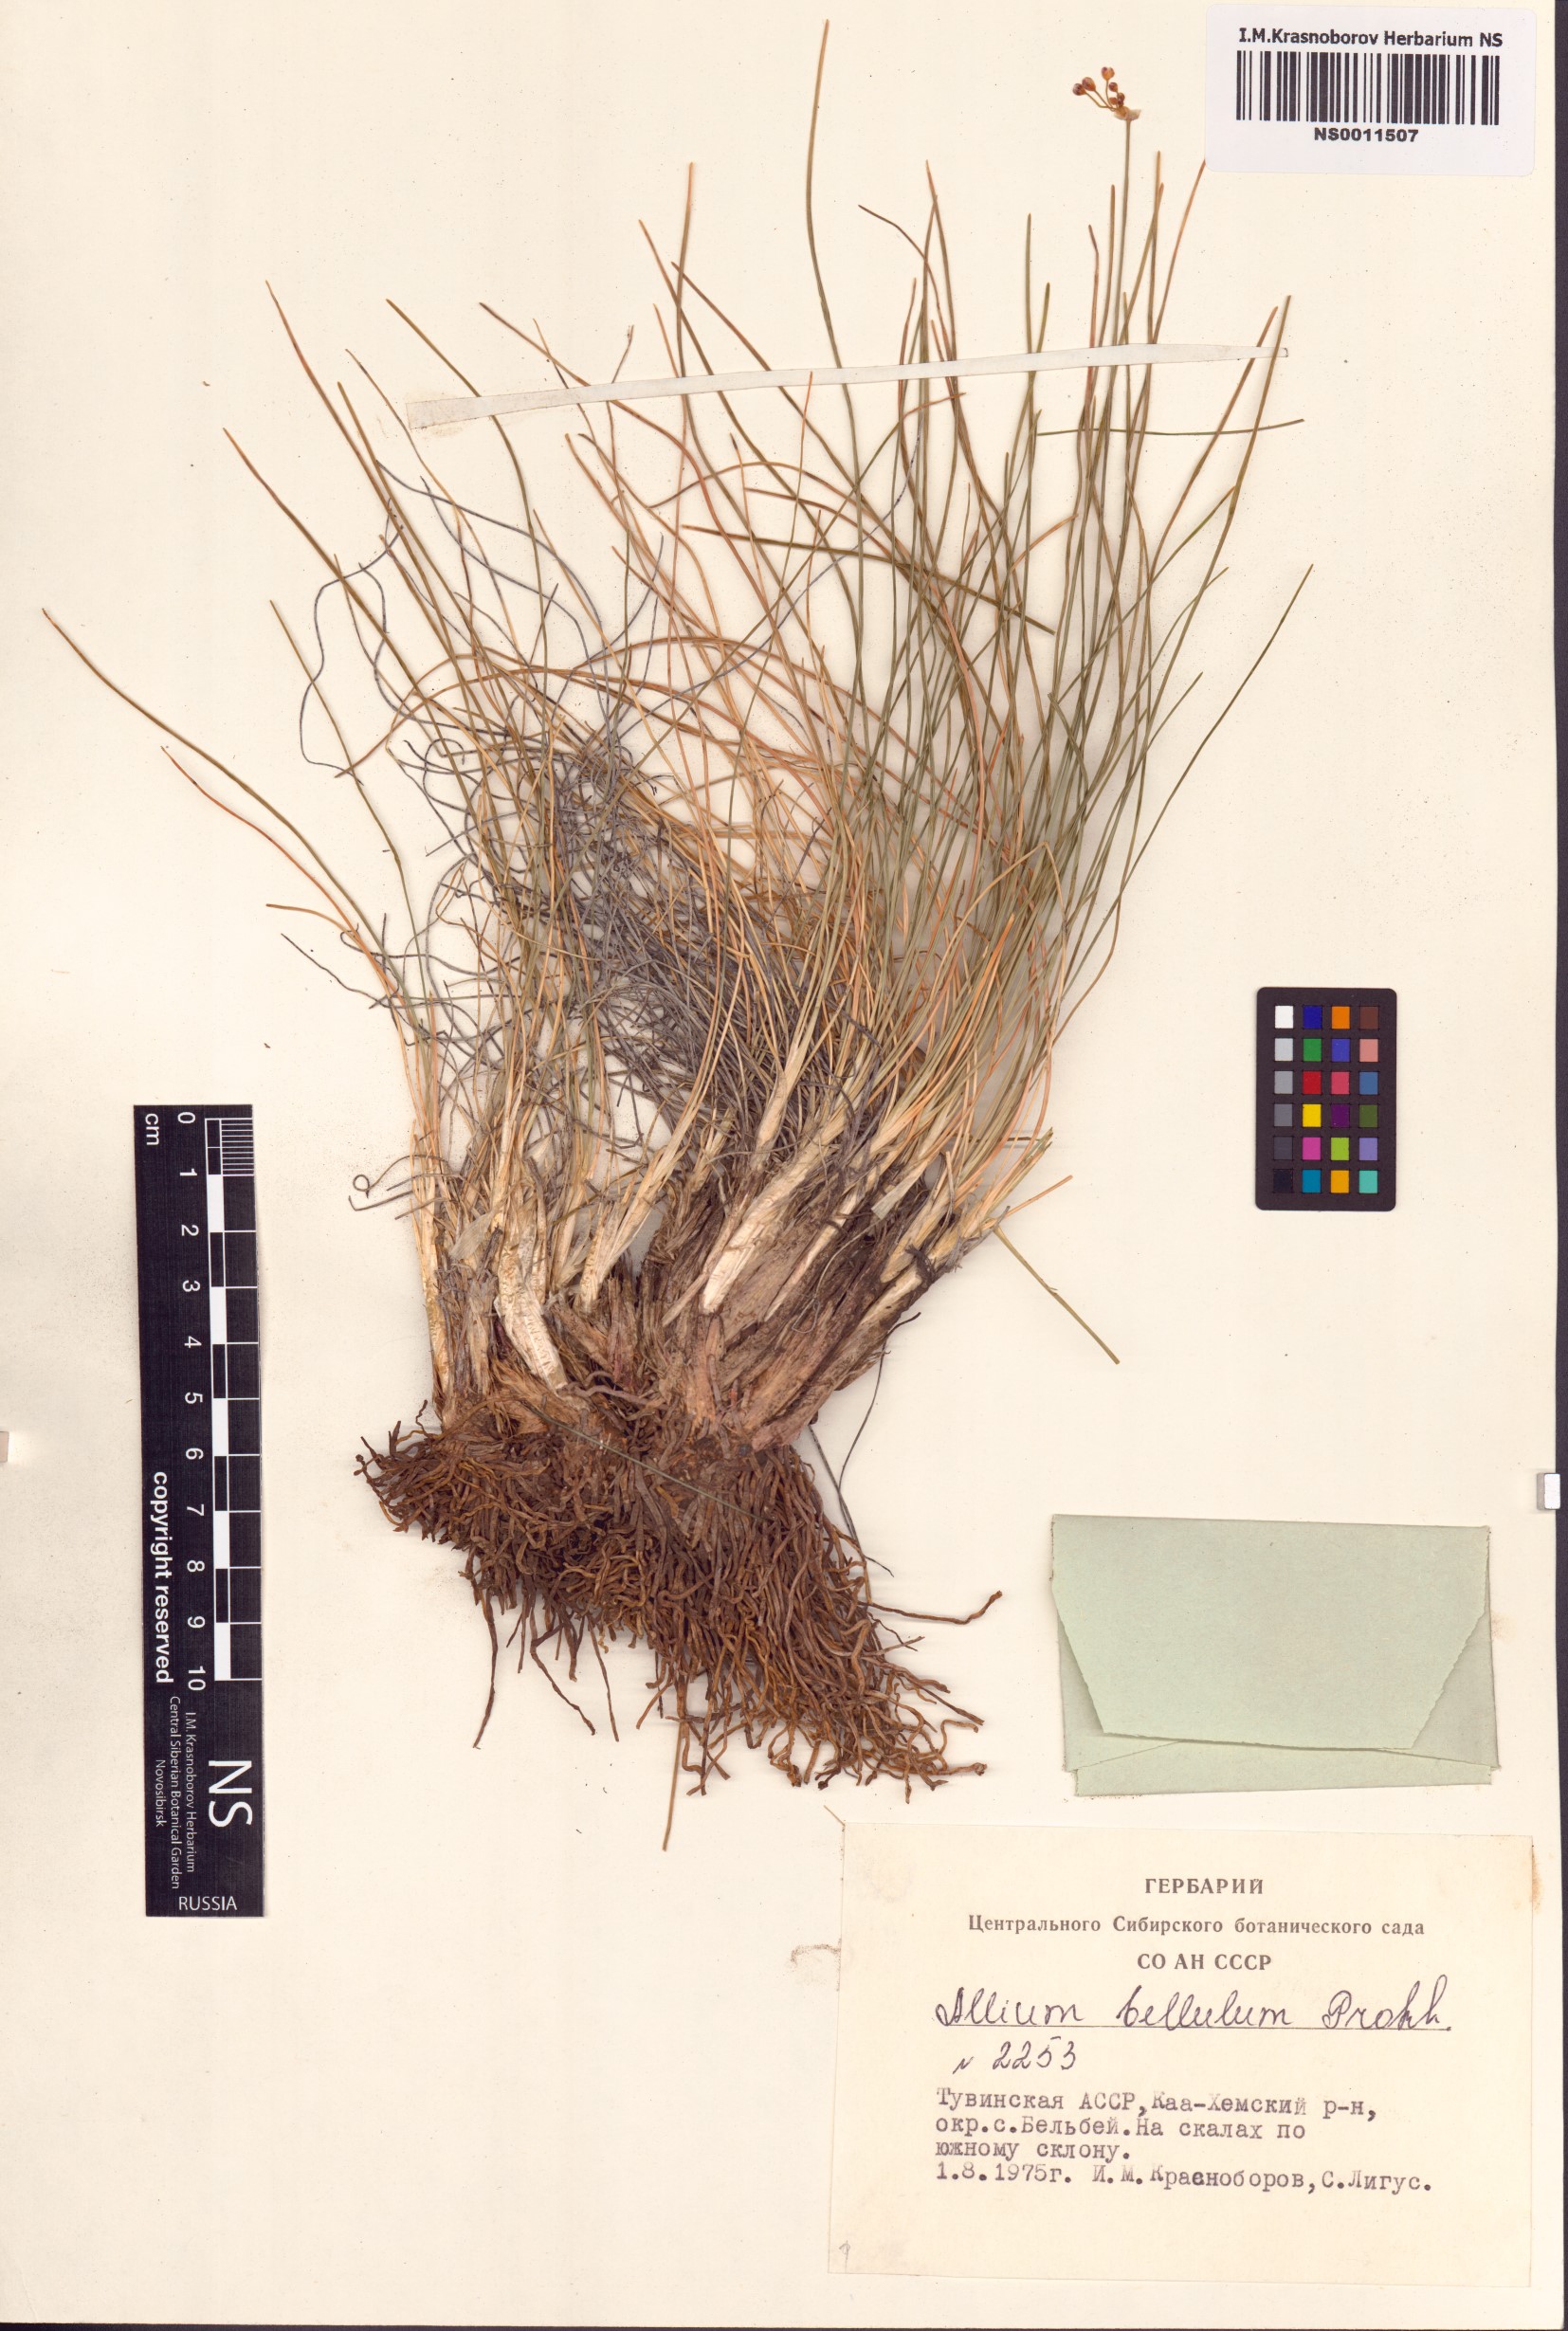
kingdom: Plantae
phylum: Tracheophyta
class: Liliopsida
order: Asparagales
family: Amaryllidaceae
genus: Allium
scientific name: Allium bellulum
